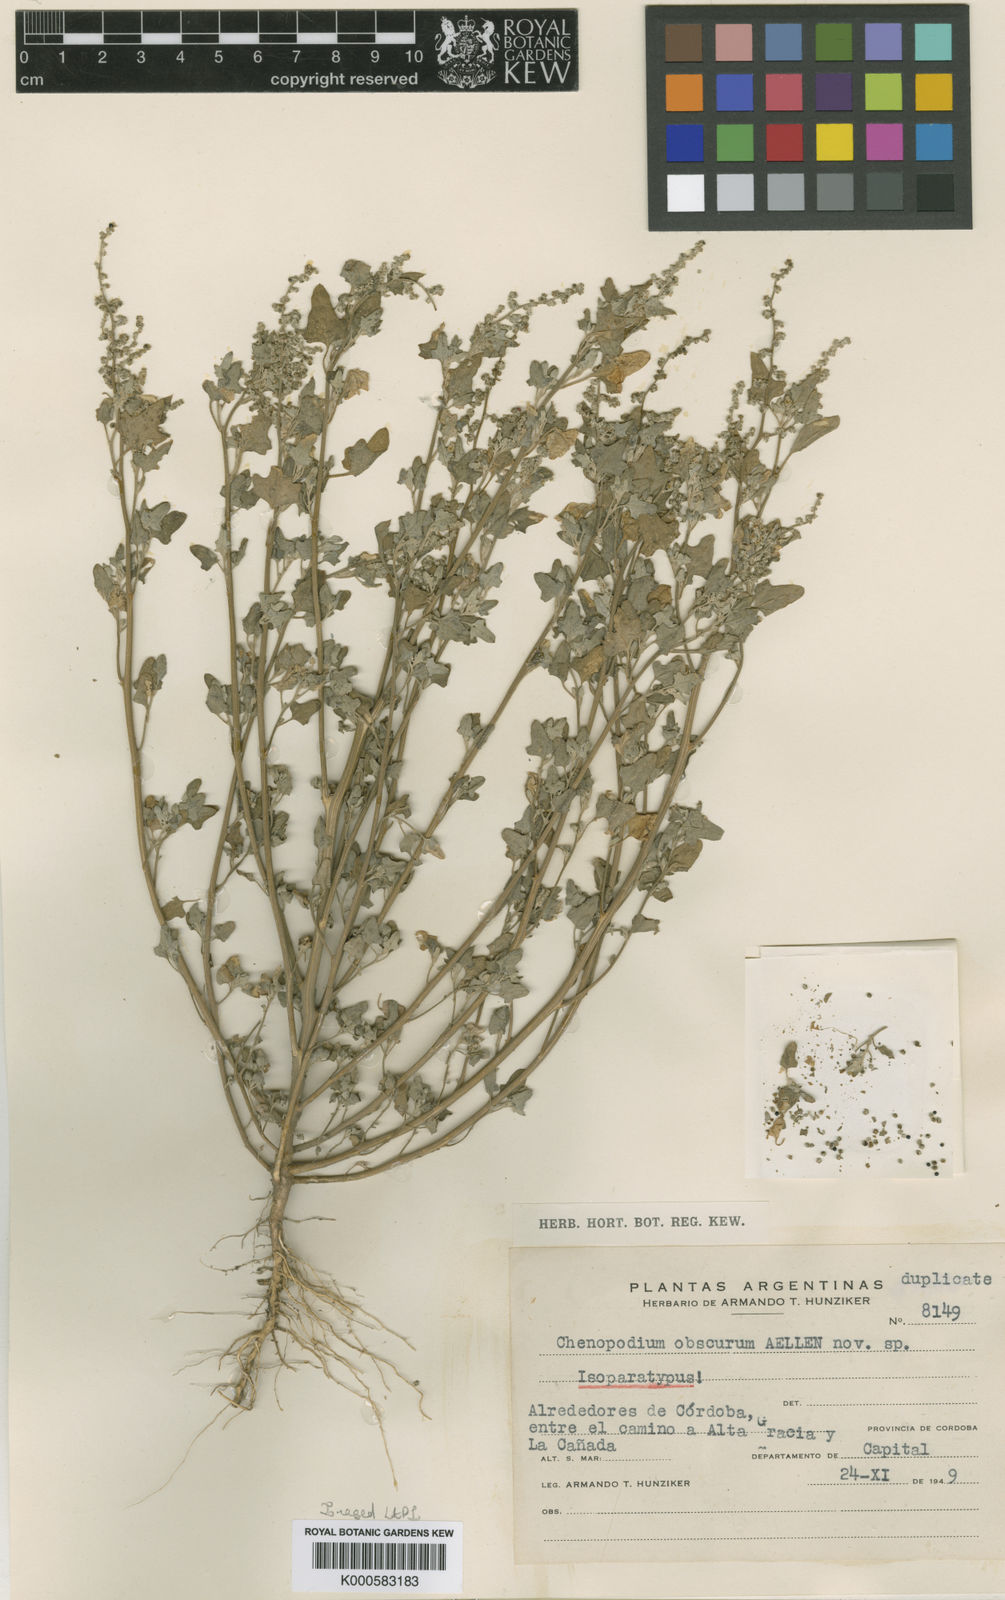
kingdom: Plantae
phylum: Tracheophyta
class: Magnoliopsida
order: Caryophyllales
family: Amaranthaceae
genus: Chenopodium
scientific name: Chenopodium obscurum
